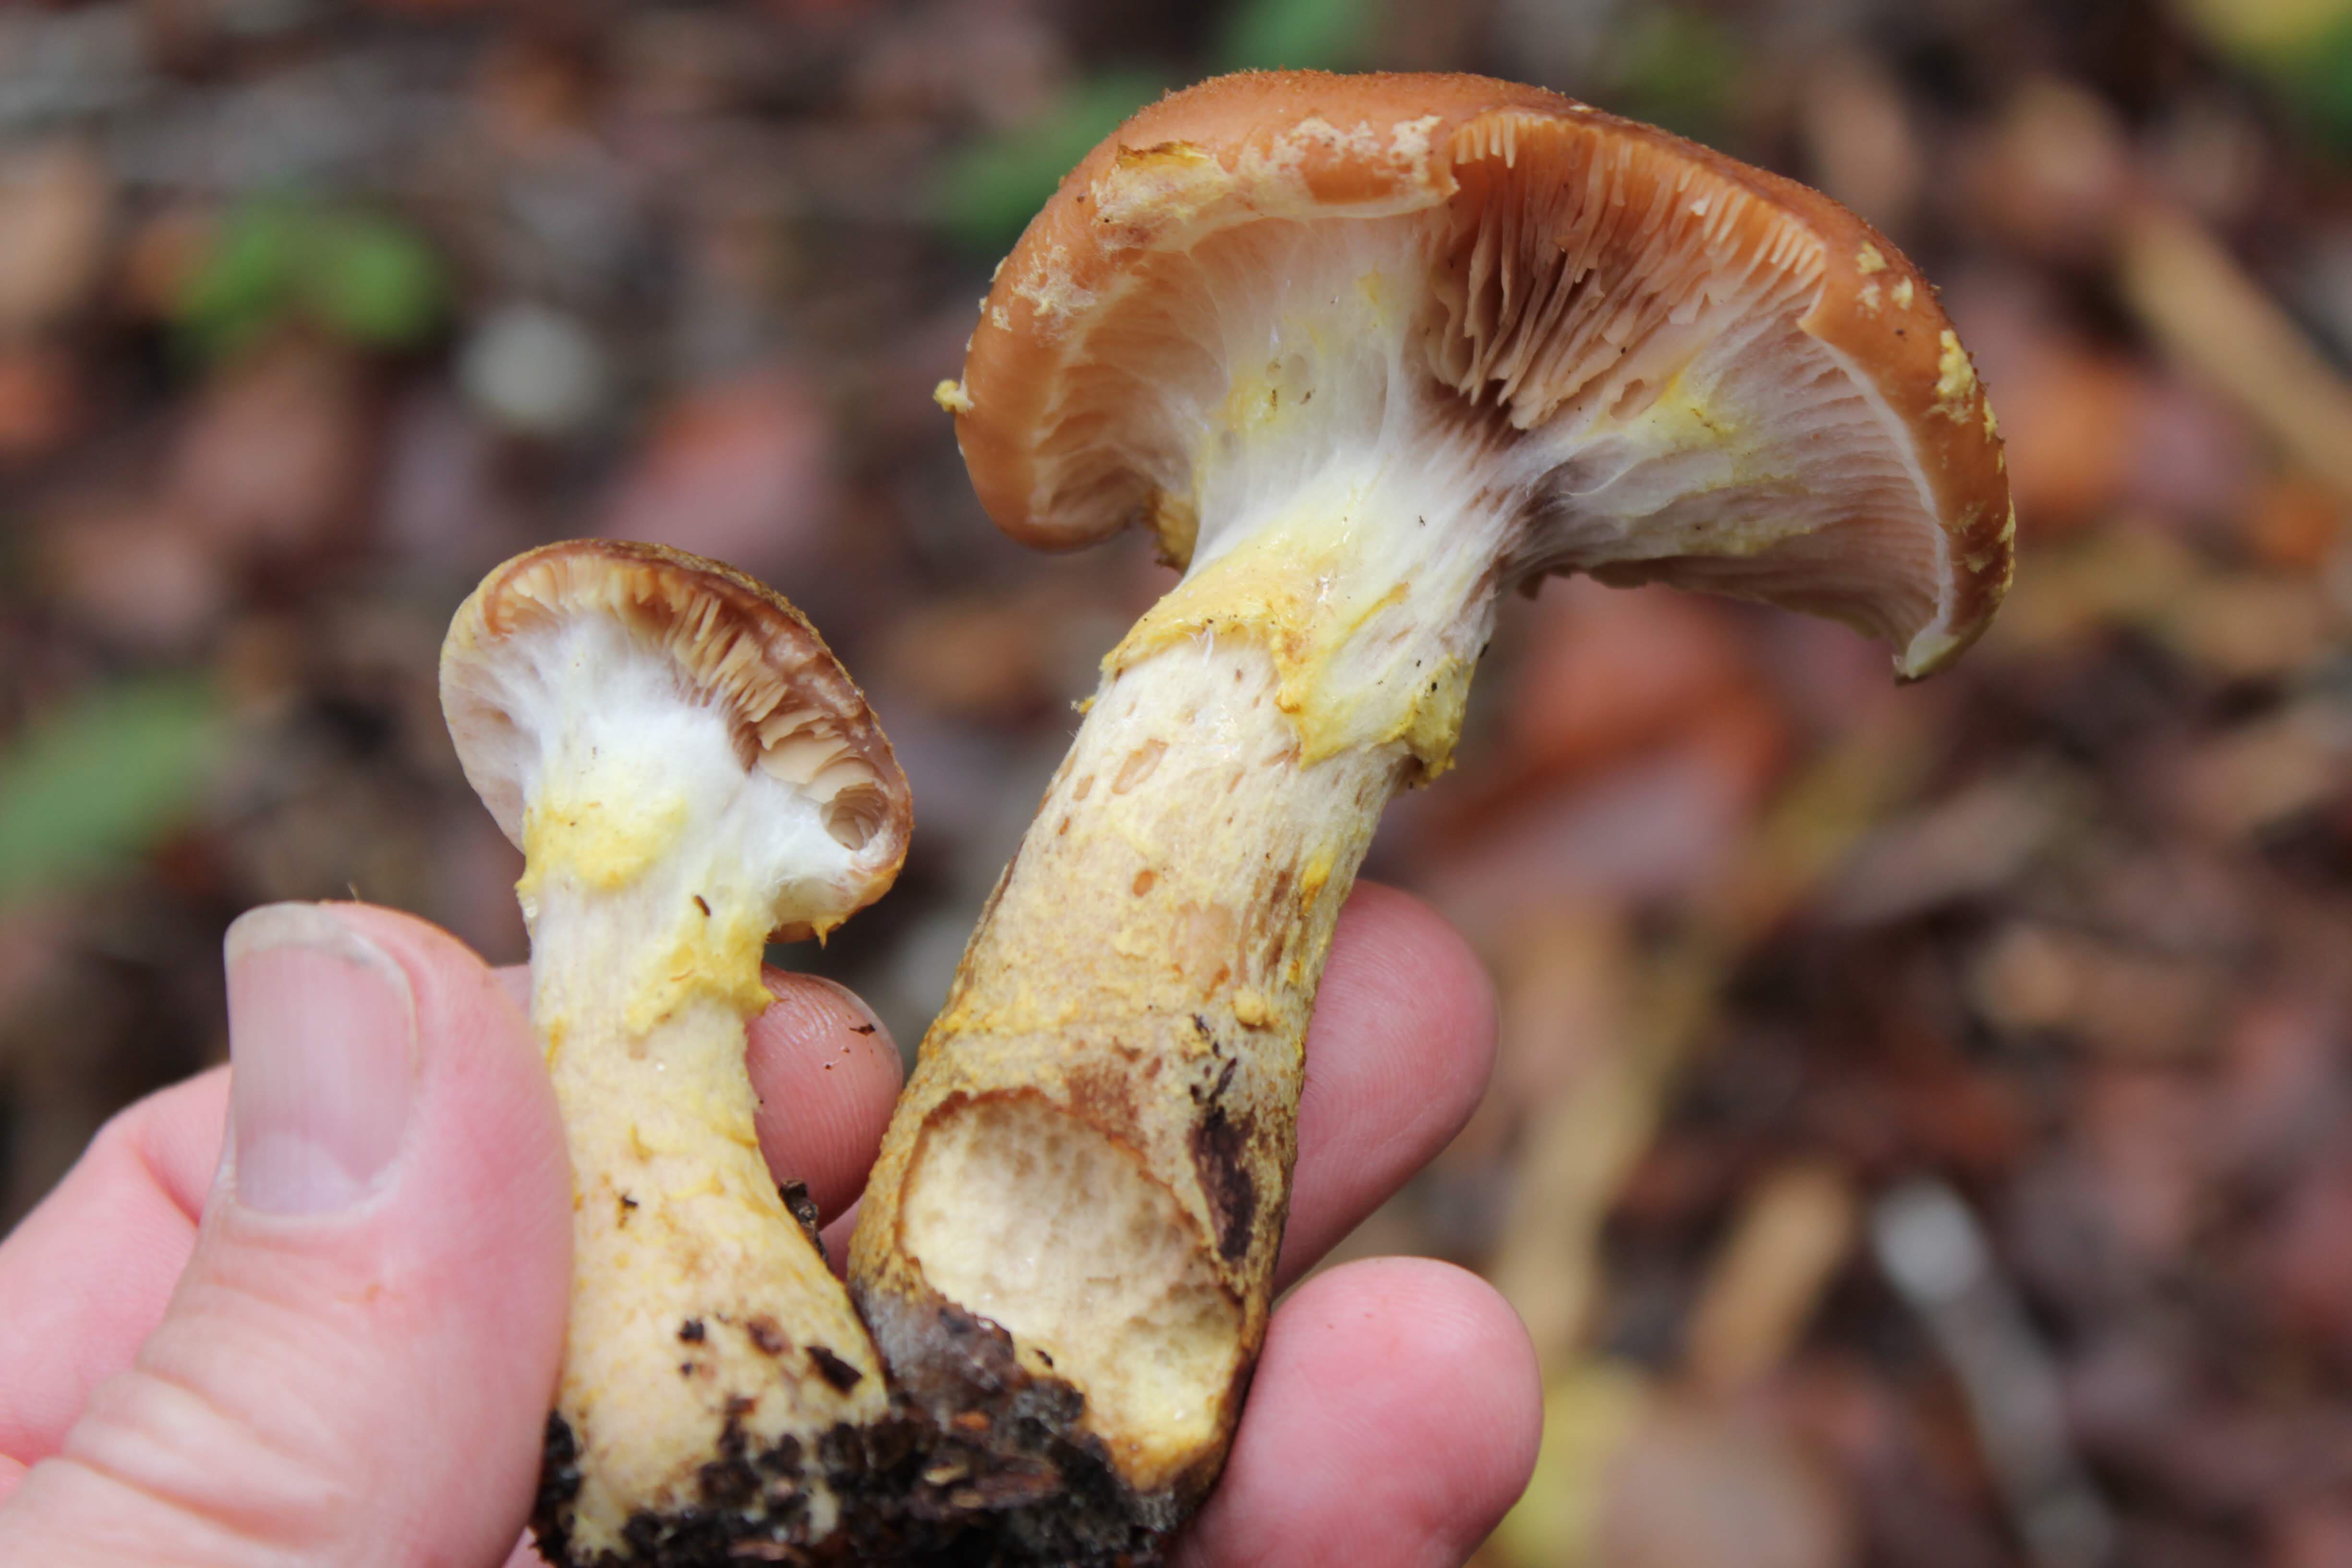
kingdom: Fungi
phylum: Basidiomycota
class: Agaricomycetes
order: Agaricales
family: Physalacriaceae
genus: Armillaria
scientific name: Armillaria lutea
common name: køllestokket honningsvamp
